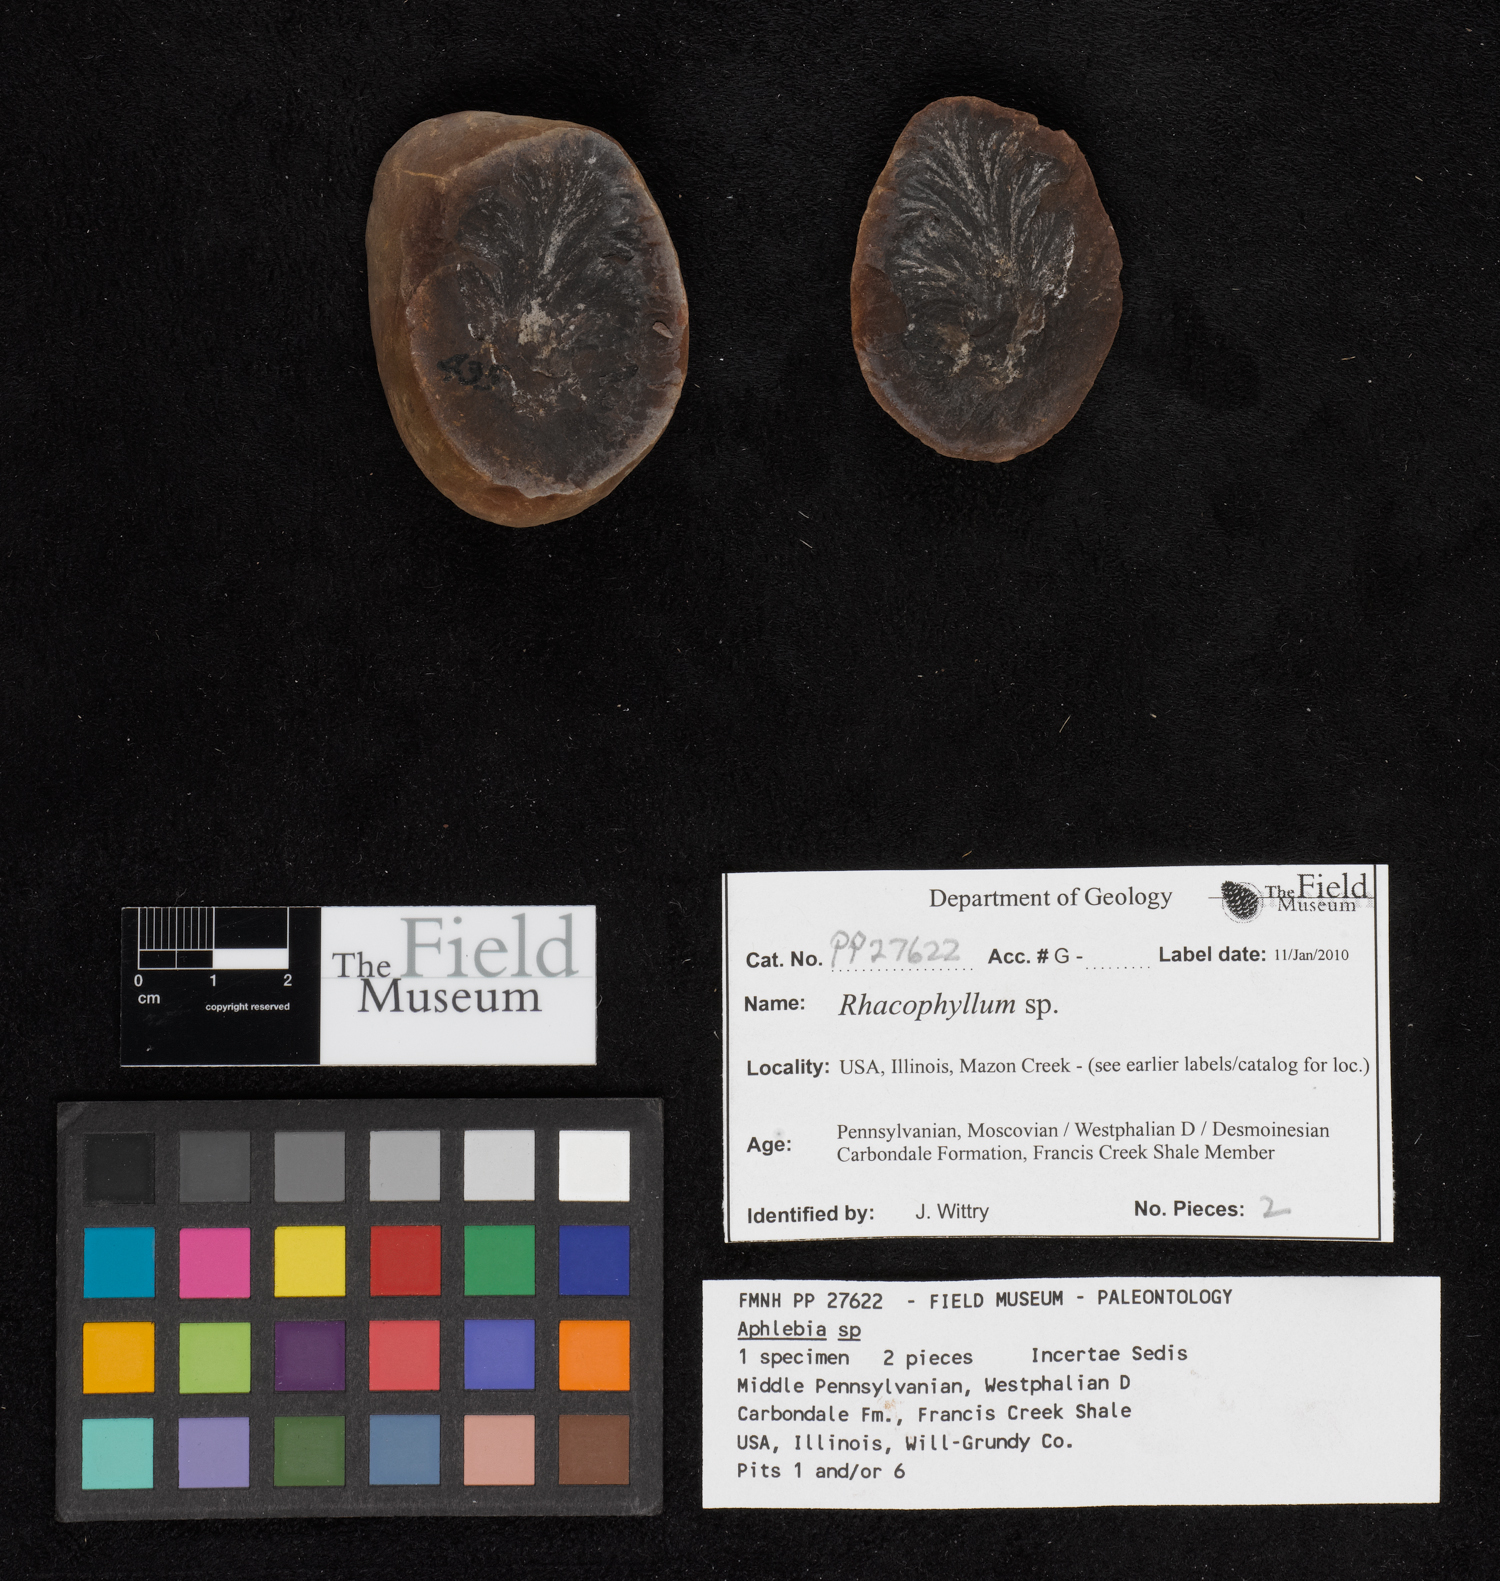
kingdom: Plantae
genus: Rhacophyllum
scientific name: Rhacophyllum
